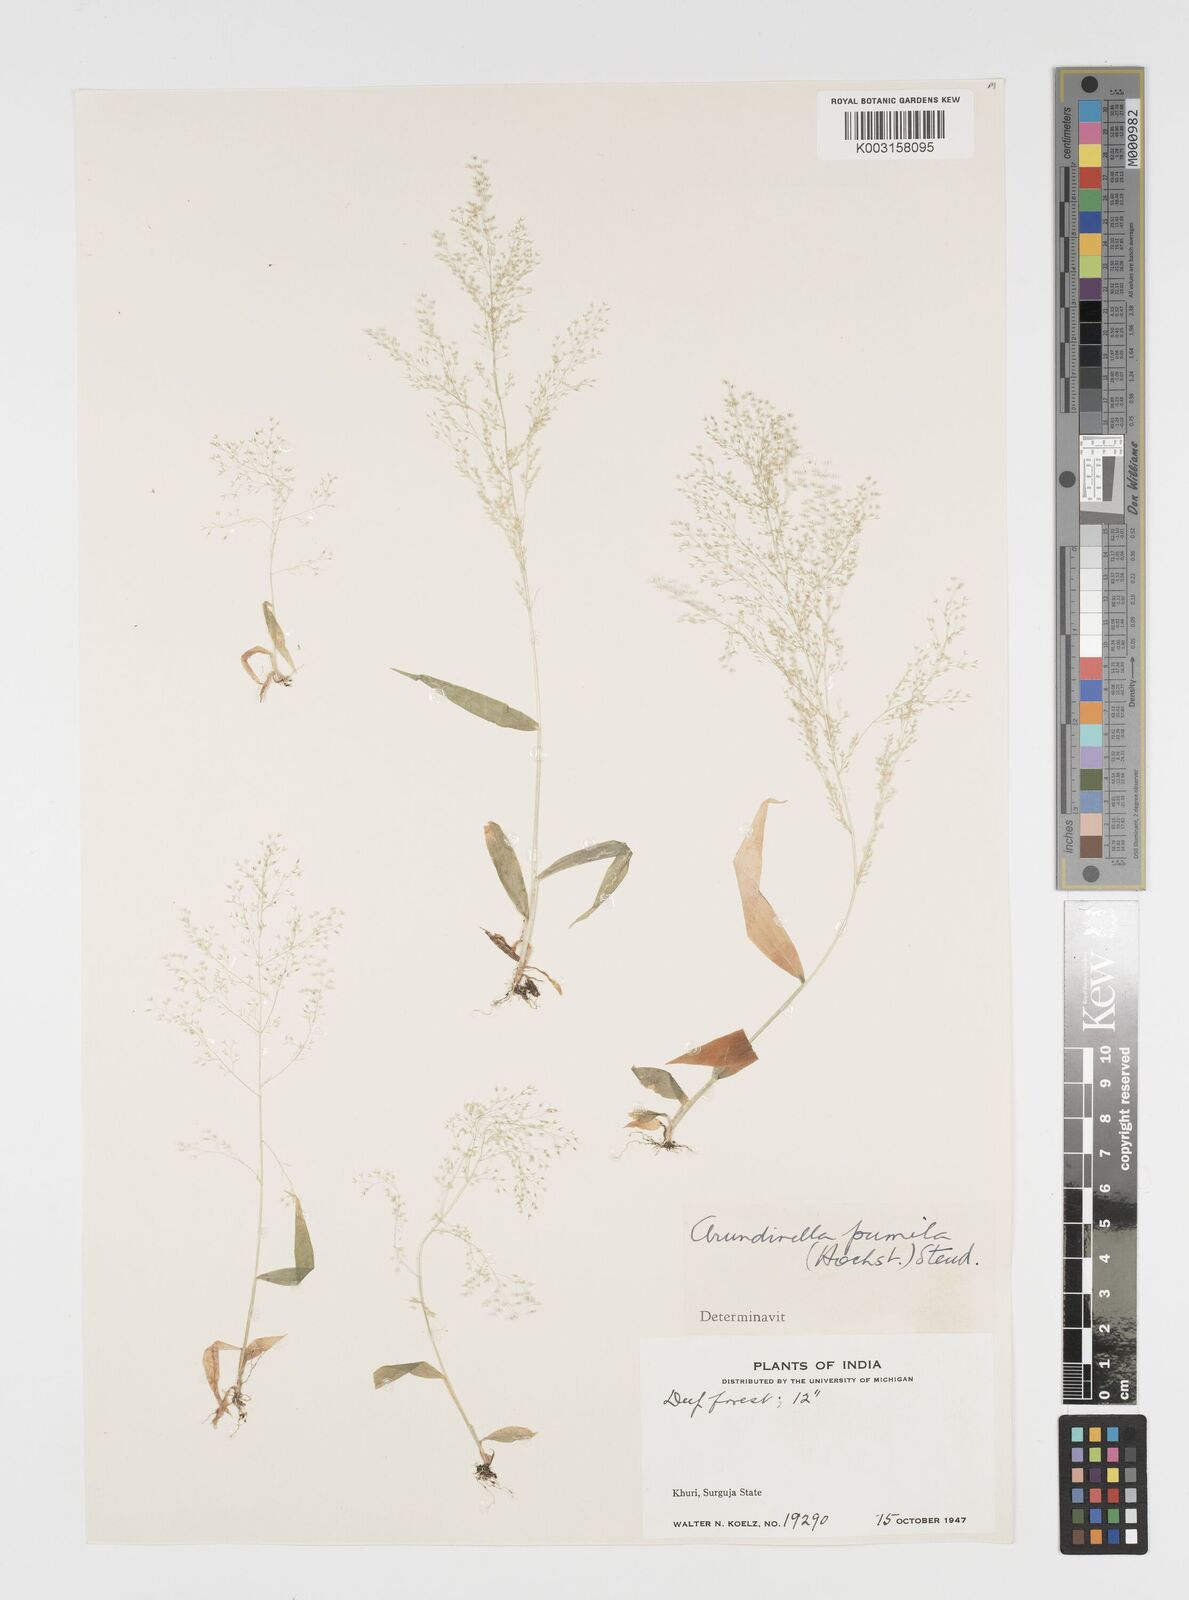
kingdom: Plantae
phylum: Tracheophyta
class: Liliopsida
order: Poales
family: Poaceae
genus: Arundinella
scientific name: Arundinella pumila
